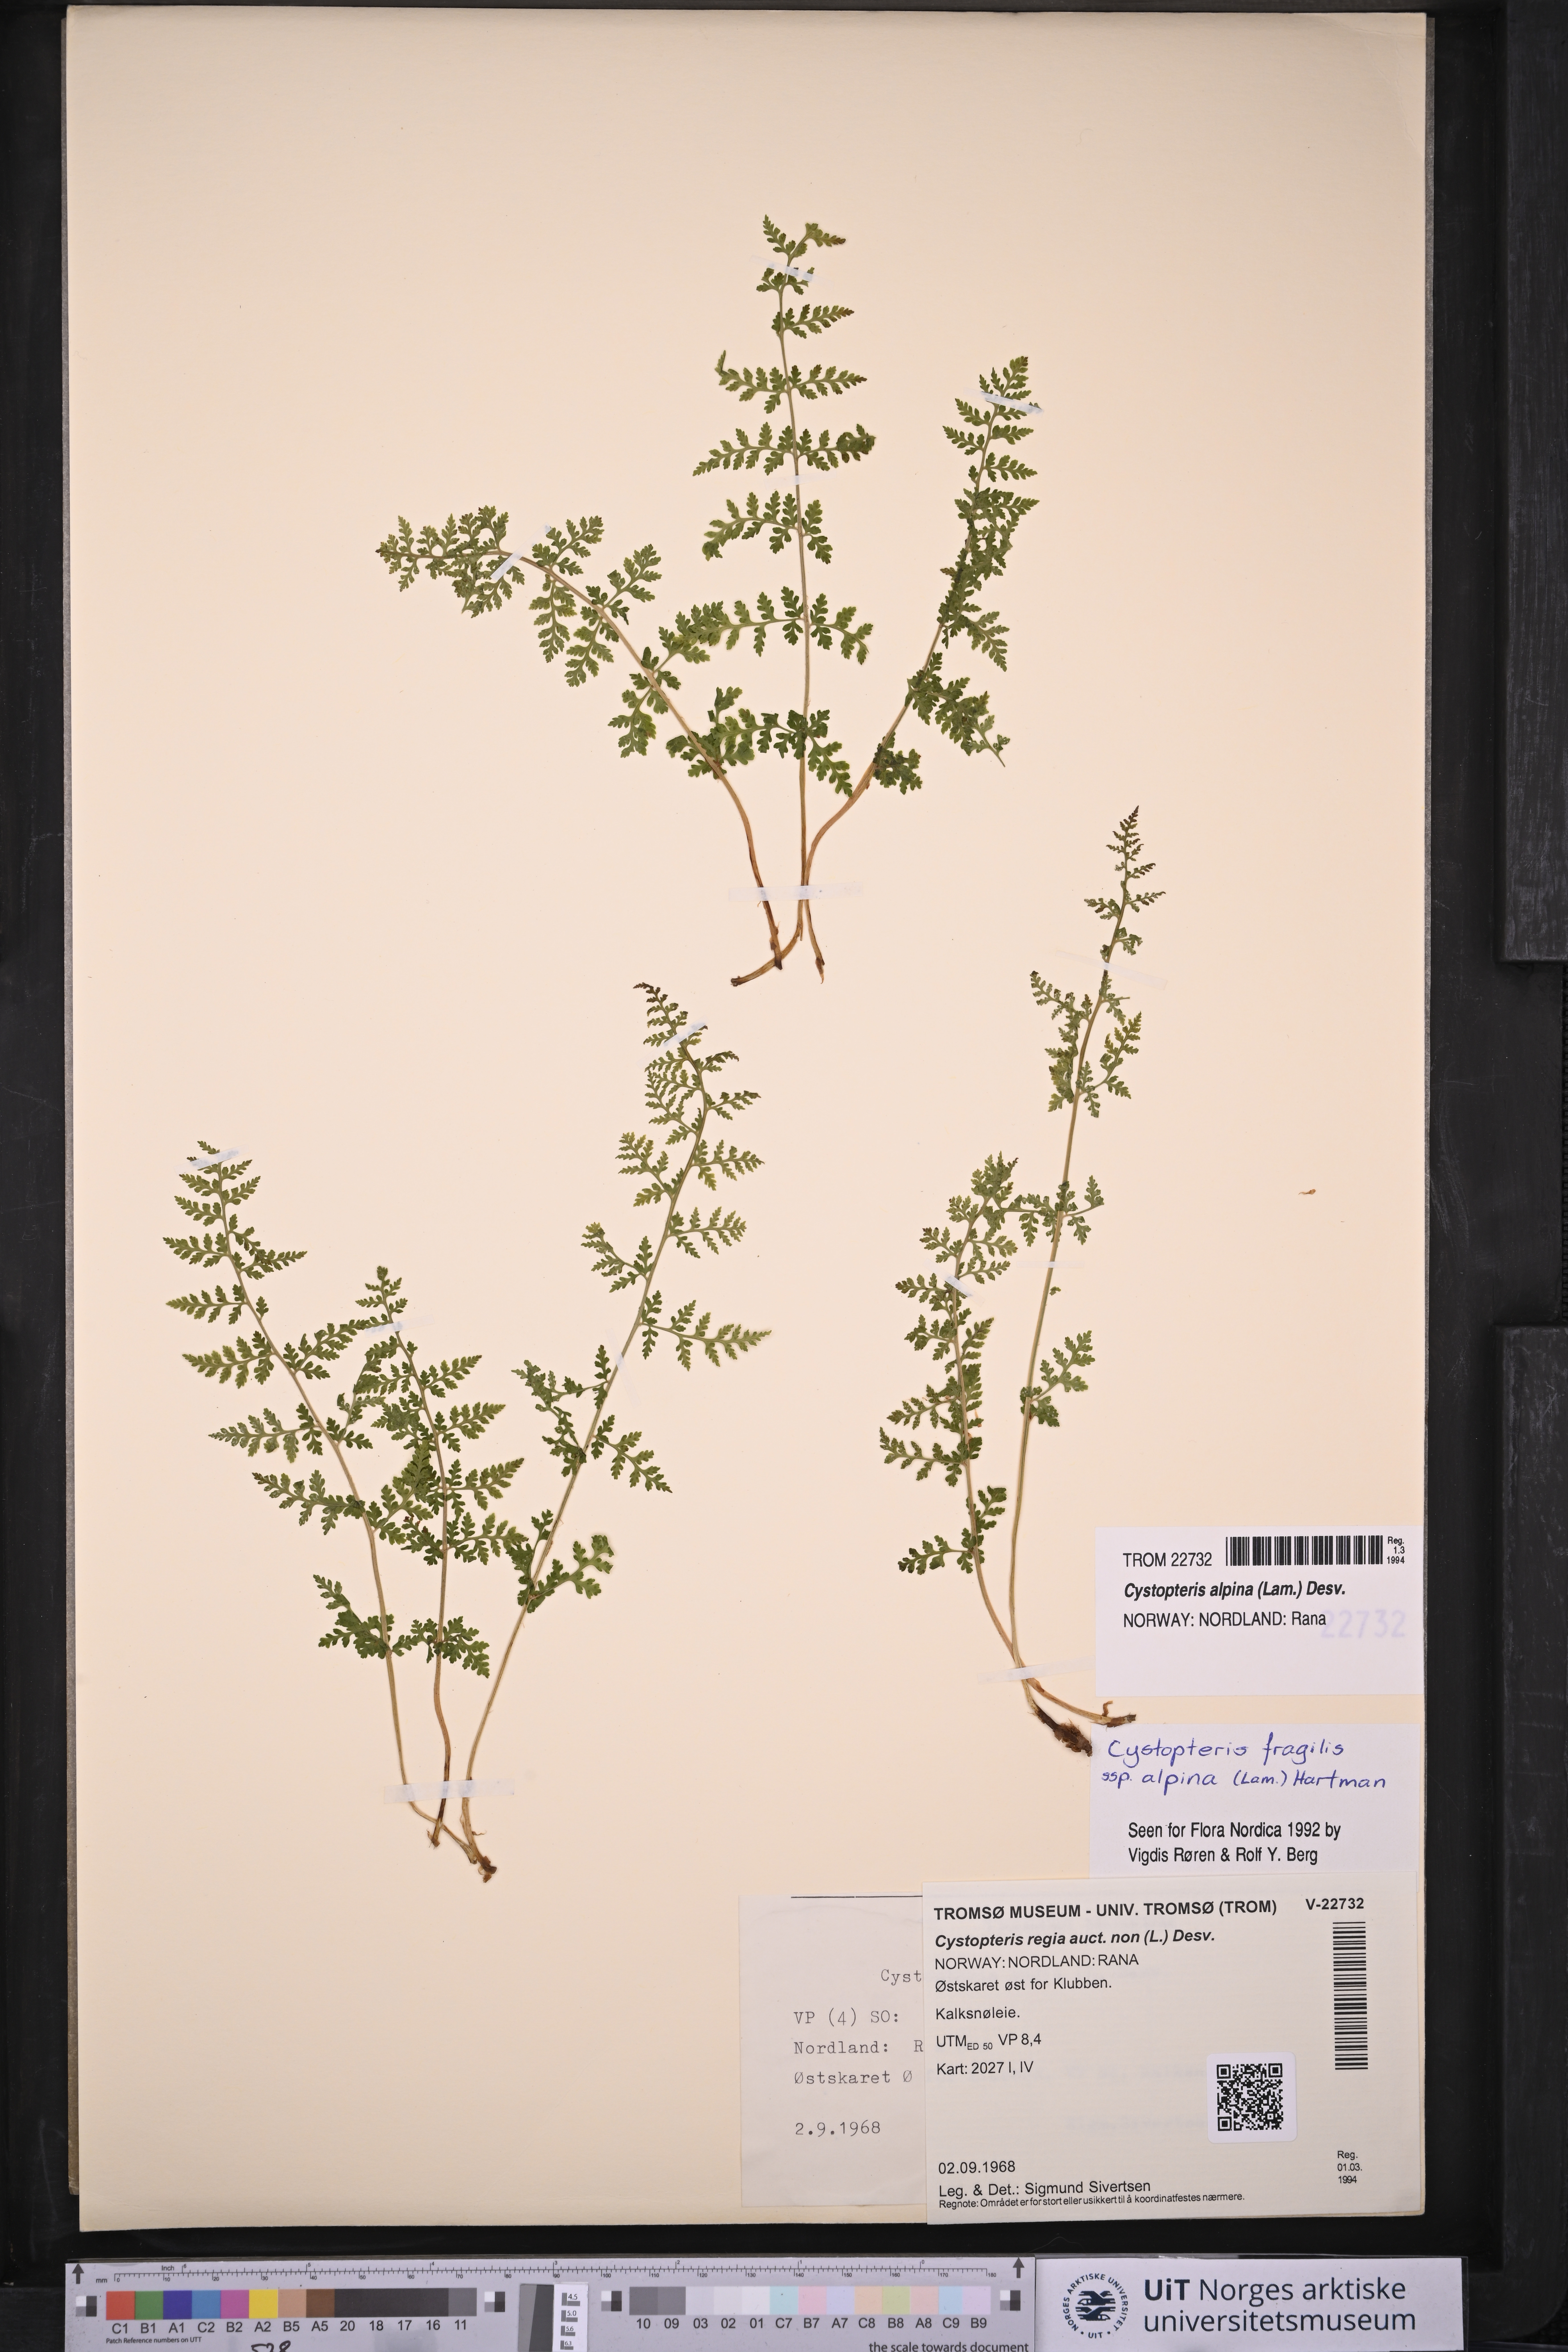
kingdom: Plantae
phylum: Tracheophyta
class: Polypodiopsida
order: Polypodiales
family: Cystopteridaceae
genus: Cystopteris
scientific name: Cystopteris alpina
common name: Alpine bladder-fern
